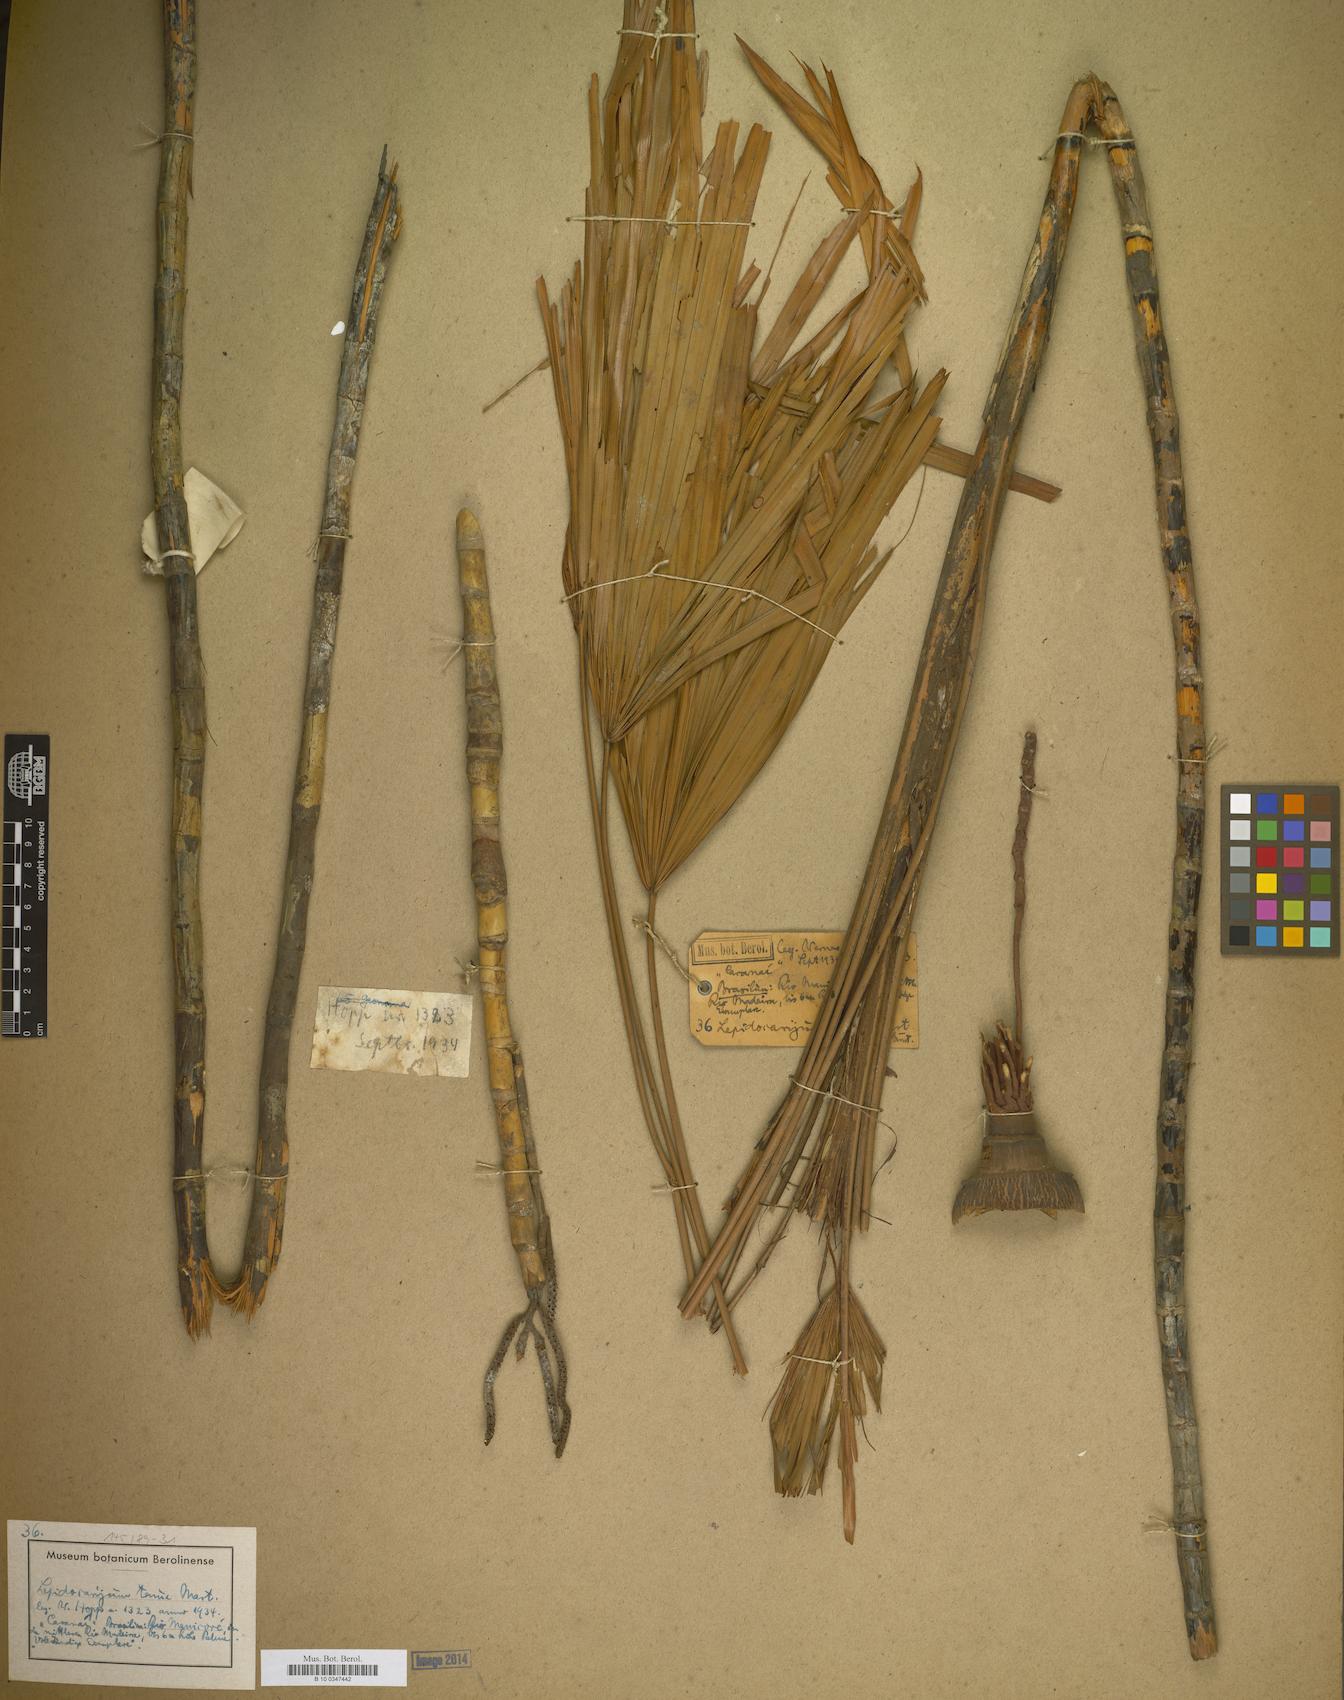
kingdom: Plantae
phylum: Tracheophyta
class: Liliopsida
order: Arecales
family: Arecaceae
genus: Lepidocaryum
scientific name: Lepidocaryum tenue
